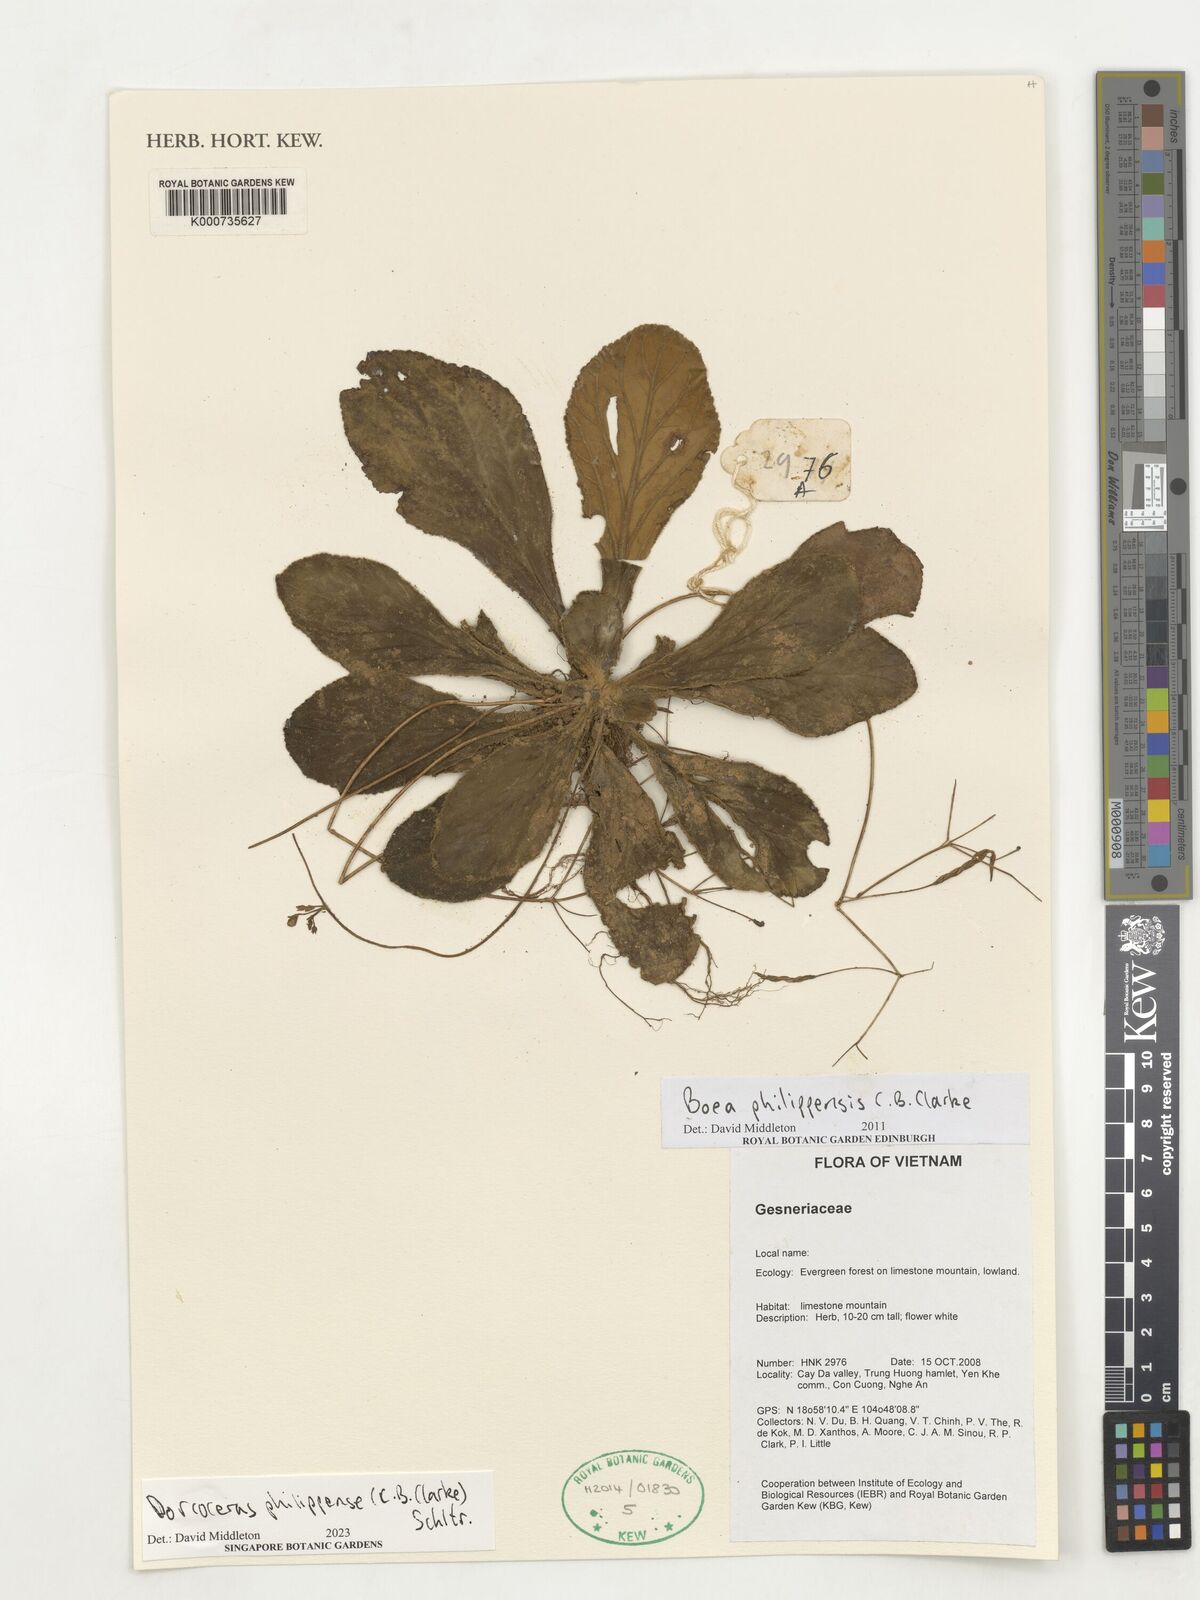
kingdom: Plantae
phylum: Tracheophyta
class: Magnoliopsida
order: Lamiales
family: Gesneriaceae
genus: Dorcoceras
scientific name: Dorcoceras philippense
